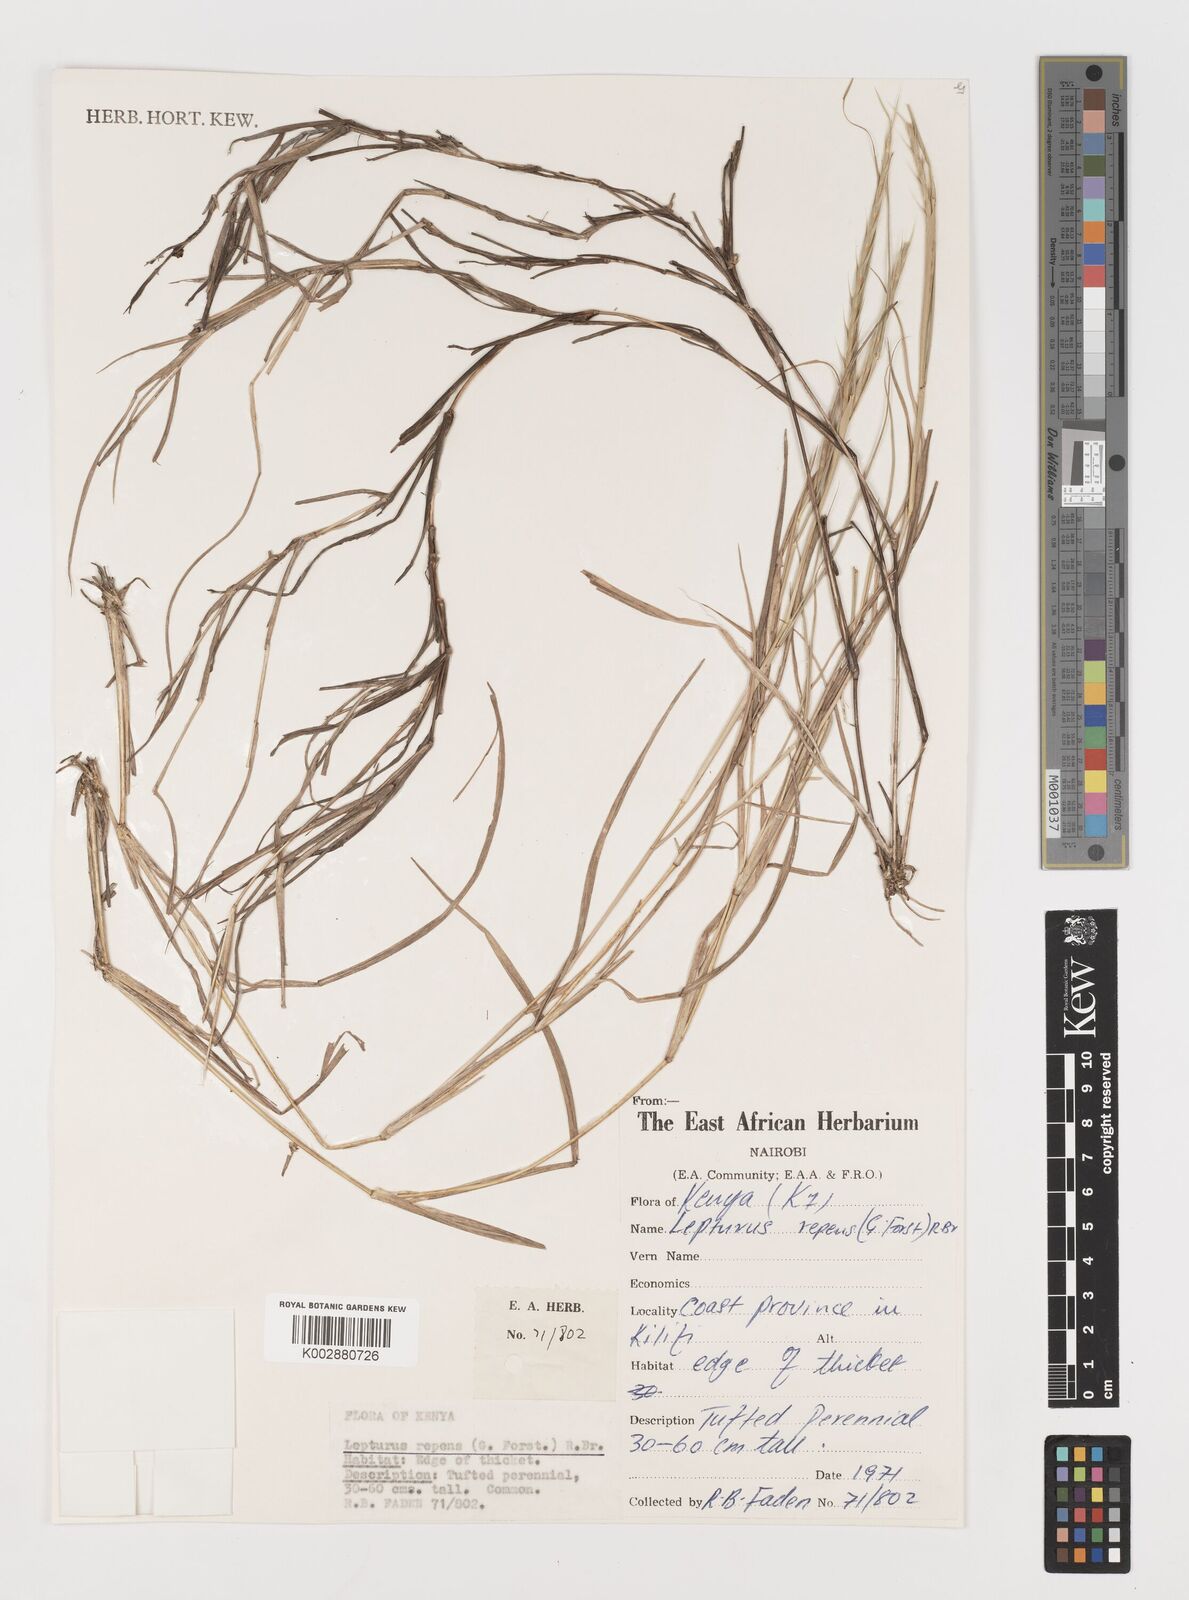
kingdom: Plantae
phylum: Tracheophyta
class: Liliopsida
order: Poales
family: Poaceae
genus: Lepturus
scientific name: Lepturus repens
